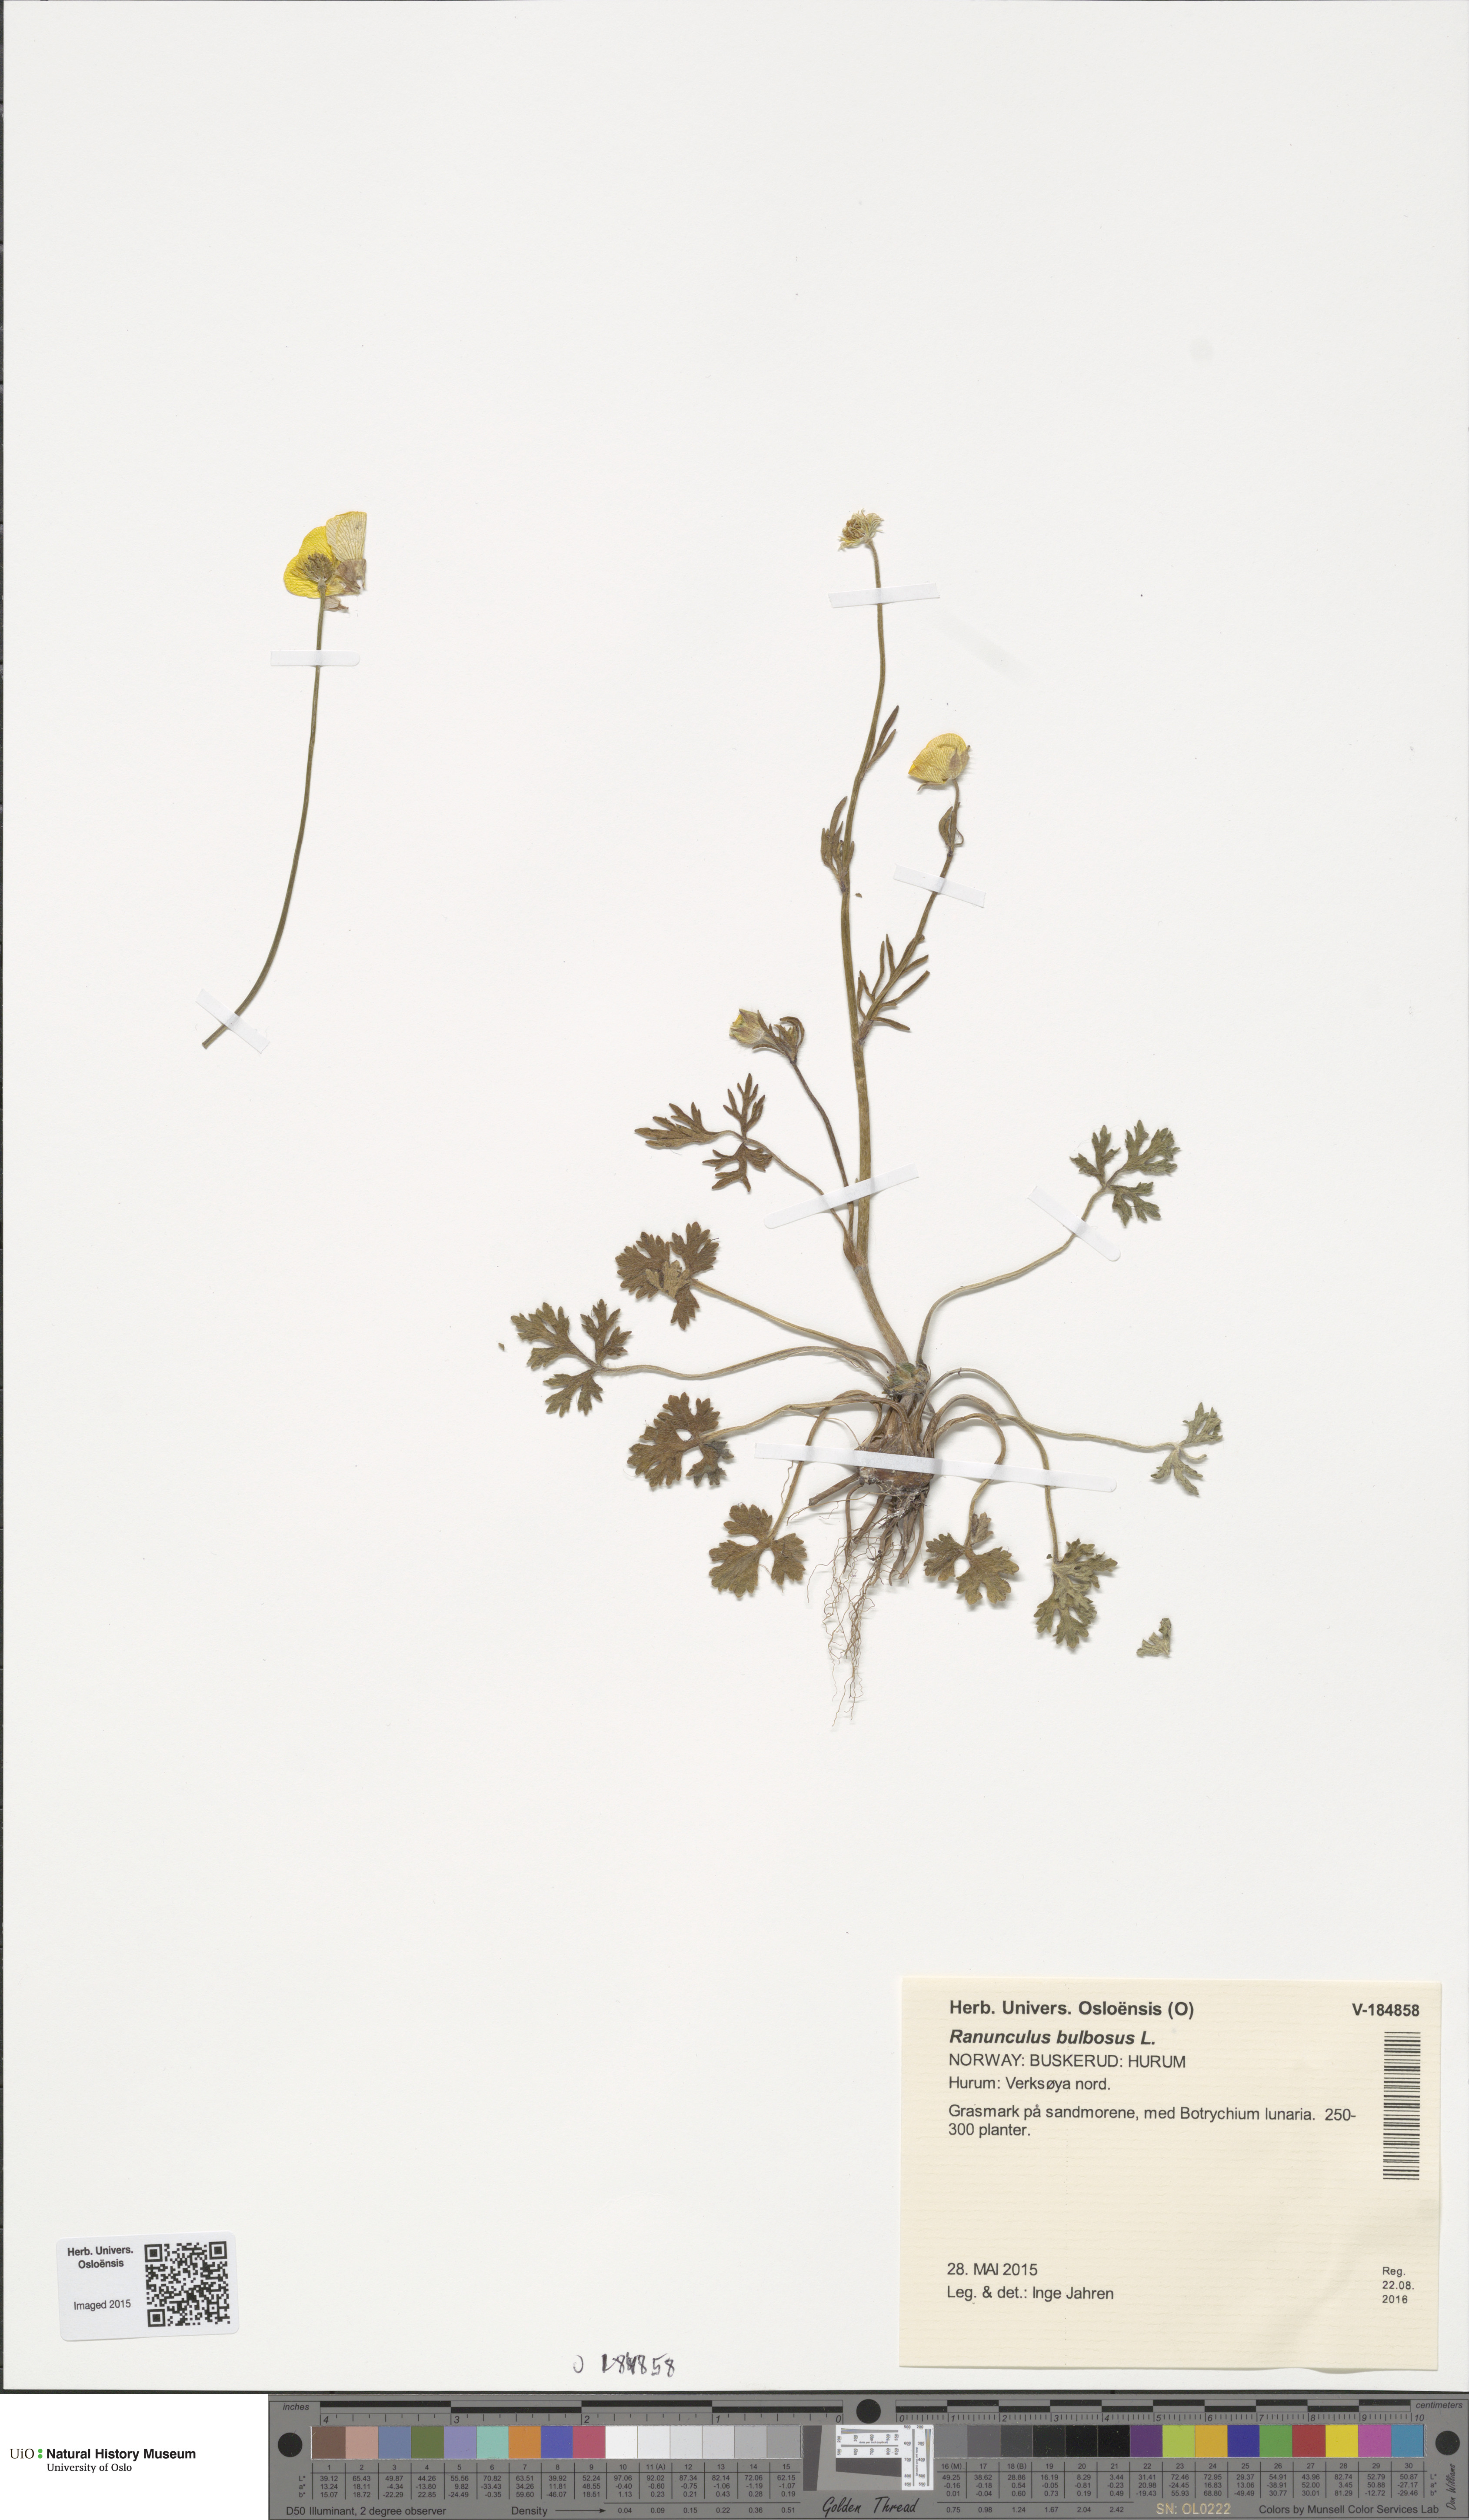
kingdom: Plantae
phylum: Tracheophyta
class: Magnoliopsida
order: Ranunculales
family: Ranunculaceae
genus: Ranunculus
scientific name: Ranunculus bulbosus
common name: Bulbous buttercup
